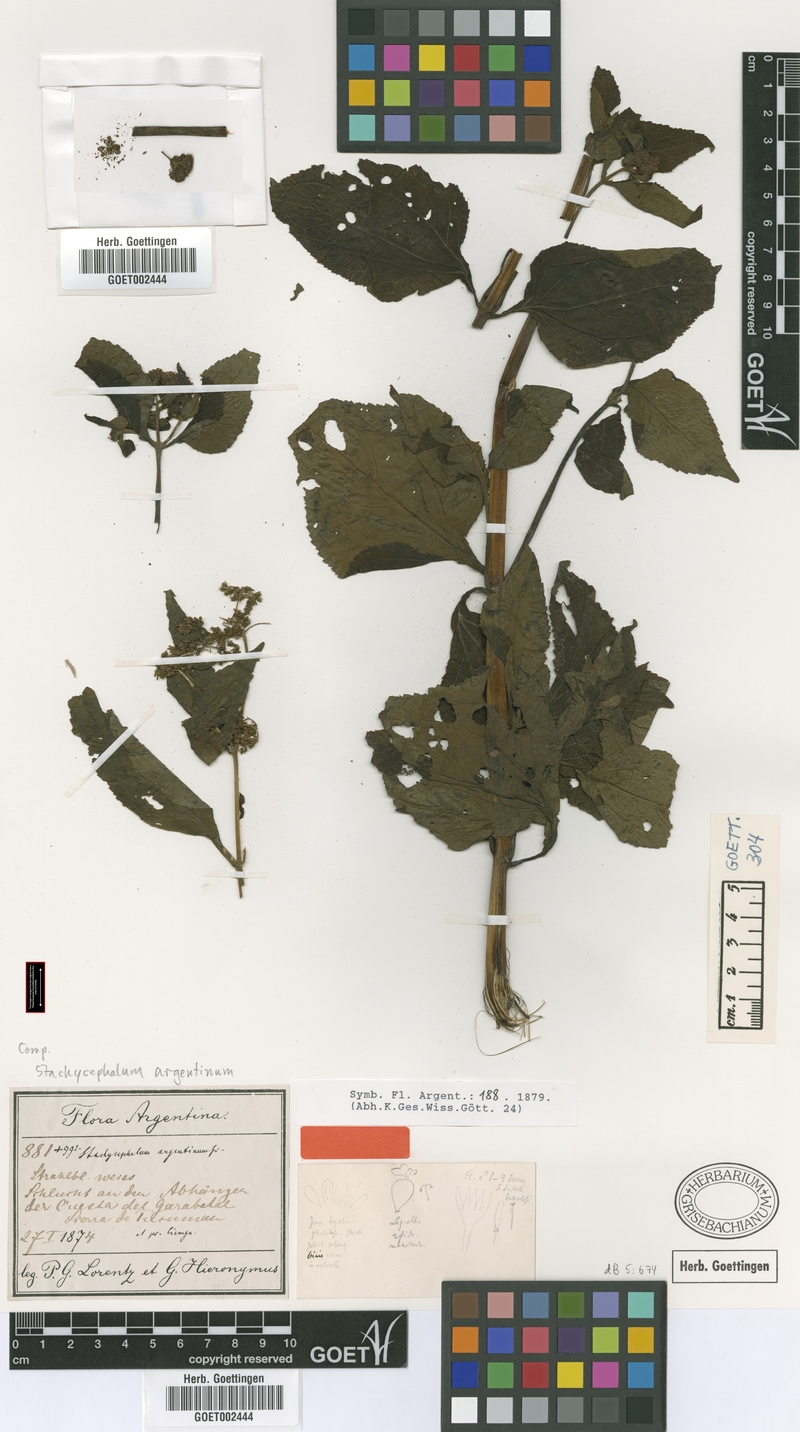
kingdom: Plantae
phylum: Tracheophyta
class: Magnoliopsida
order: Asterales
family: Asteraceae
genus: Stachycephalum
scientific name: Stachycephalum argentinum
